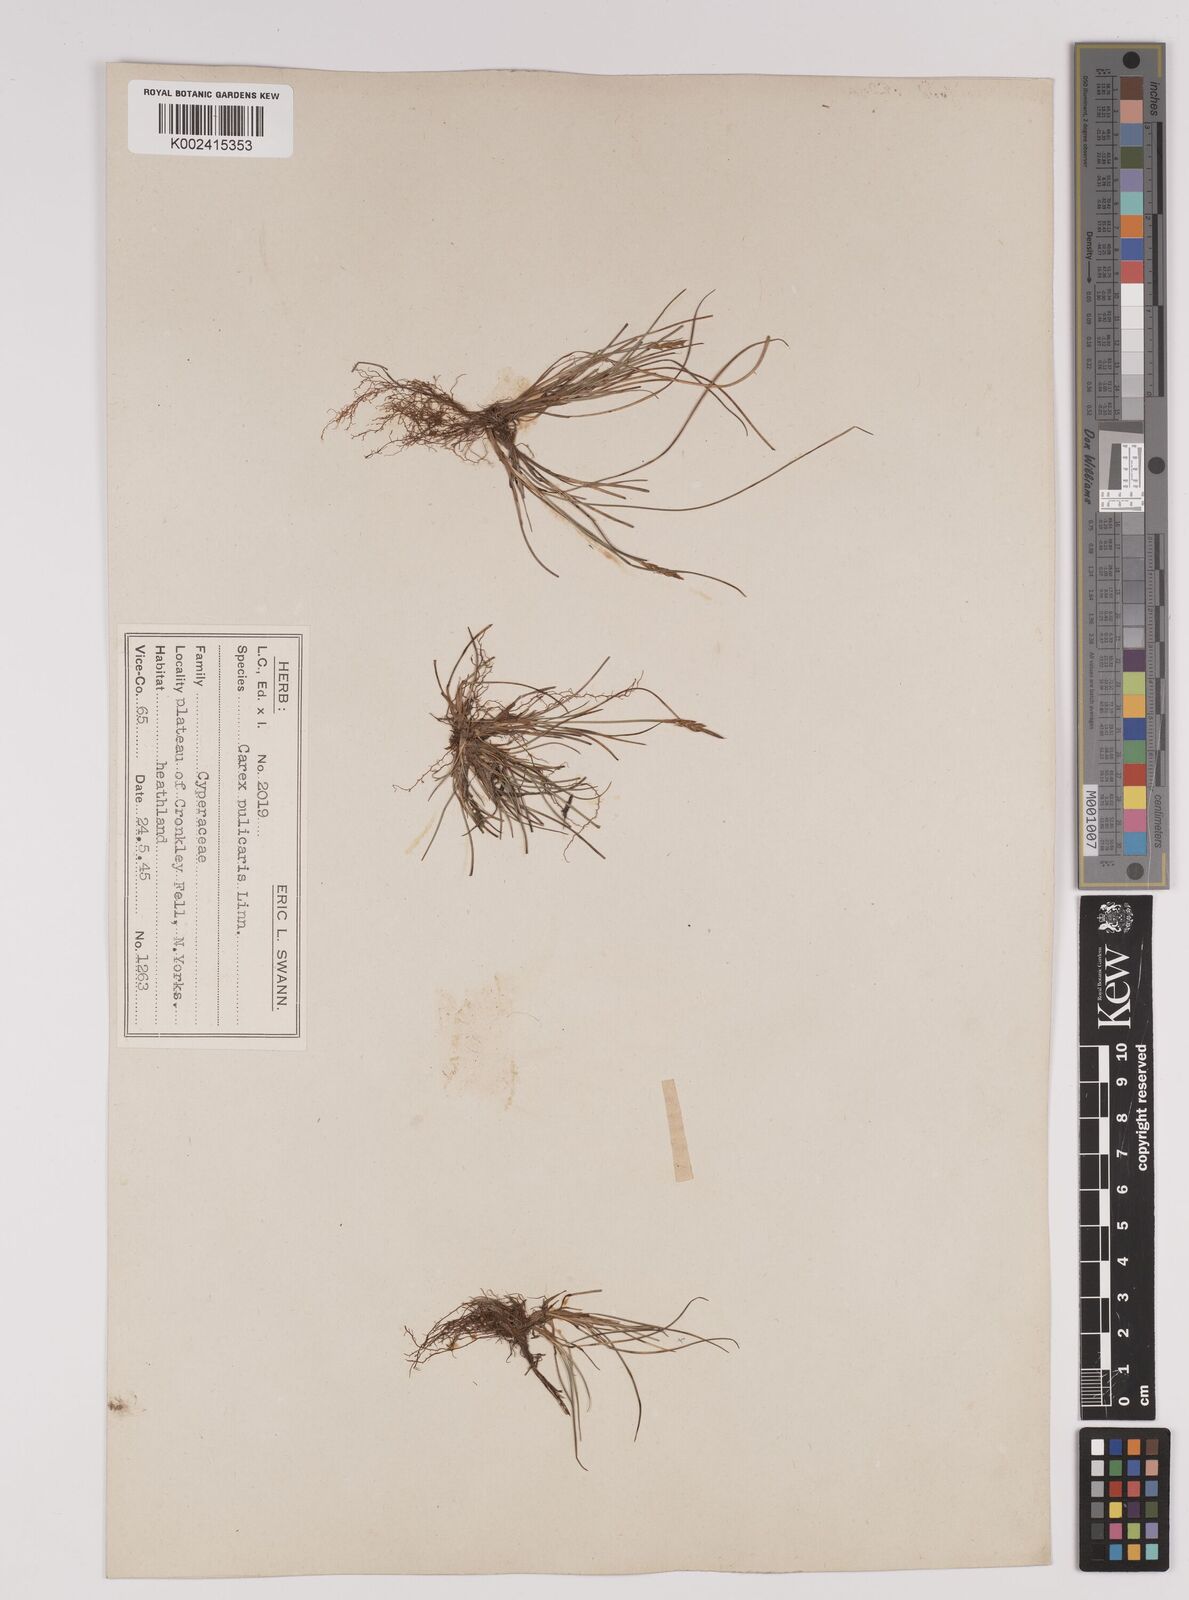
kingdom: Plantae
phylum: Tracheophyta
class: Liliopsida
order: Poales
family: Cyperaceae
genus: Carex
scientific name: Carex pulicaris
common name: Flea sedge
